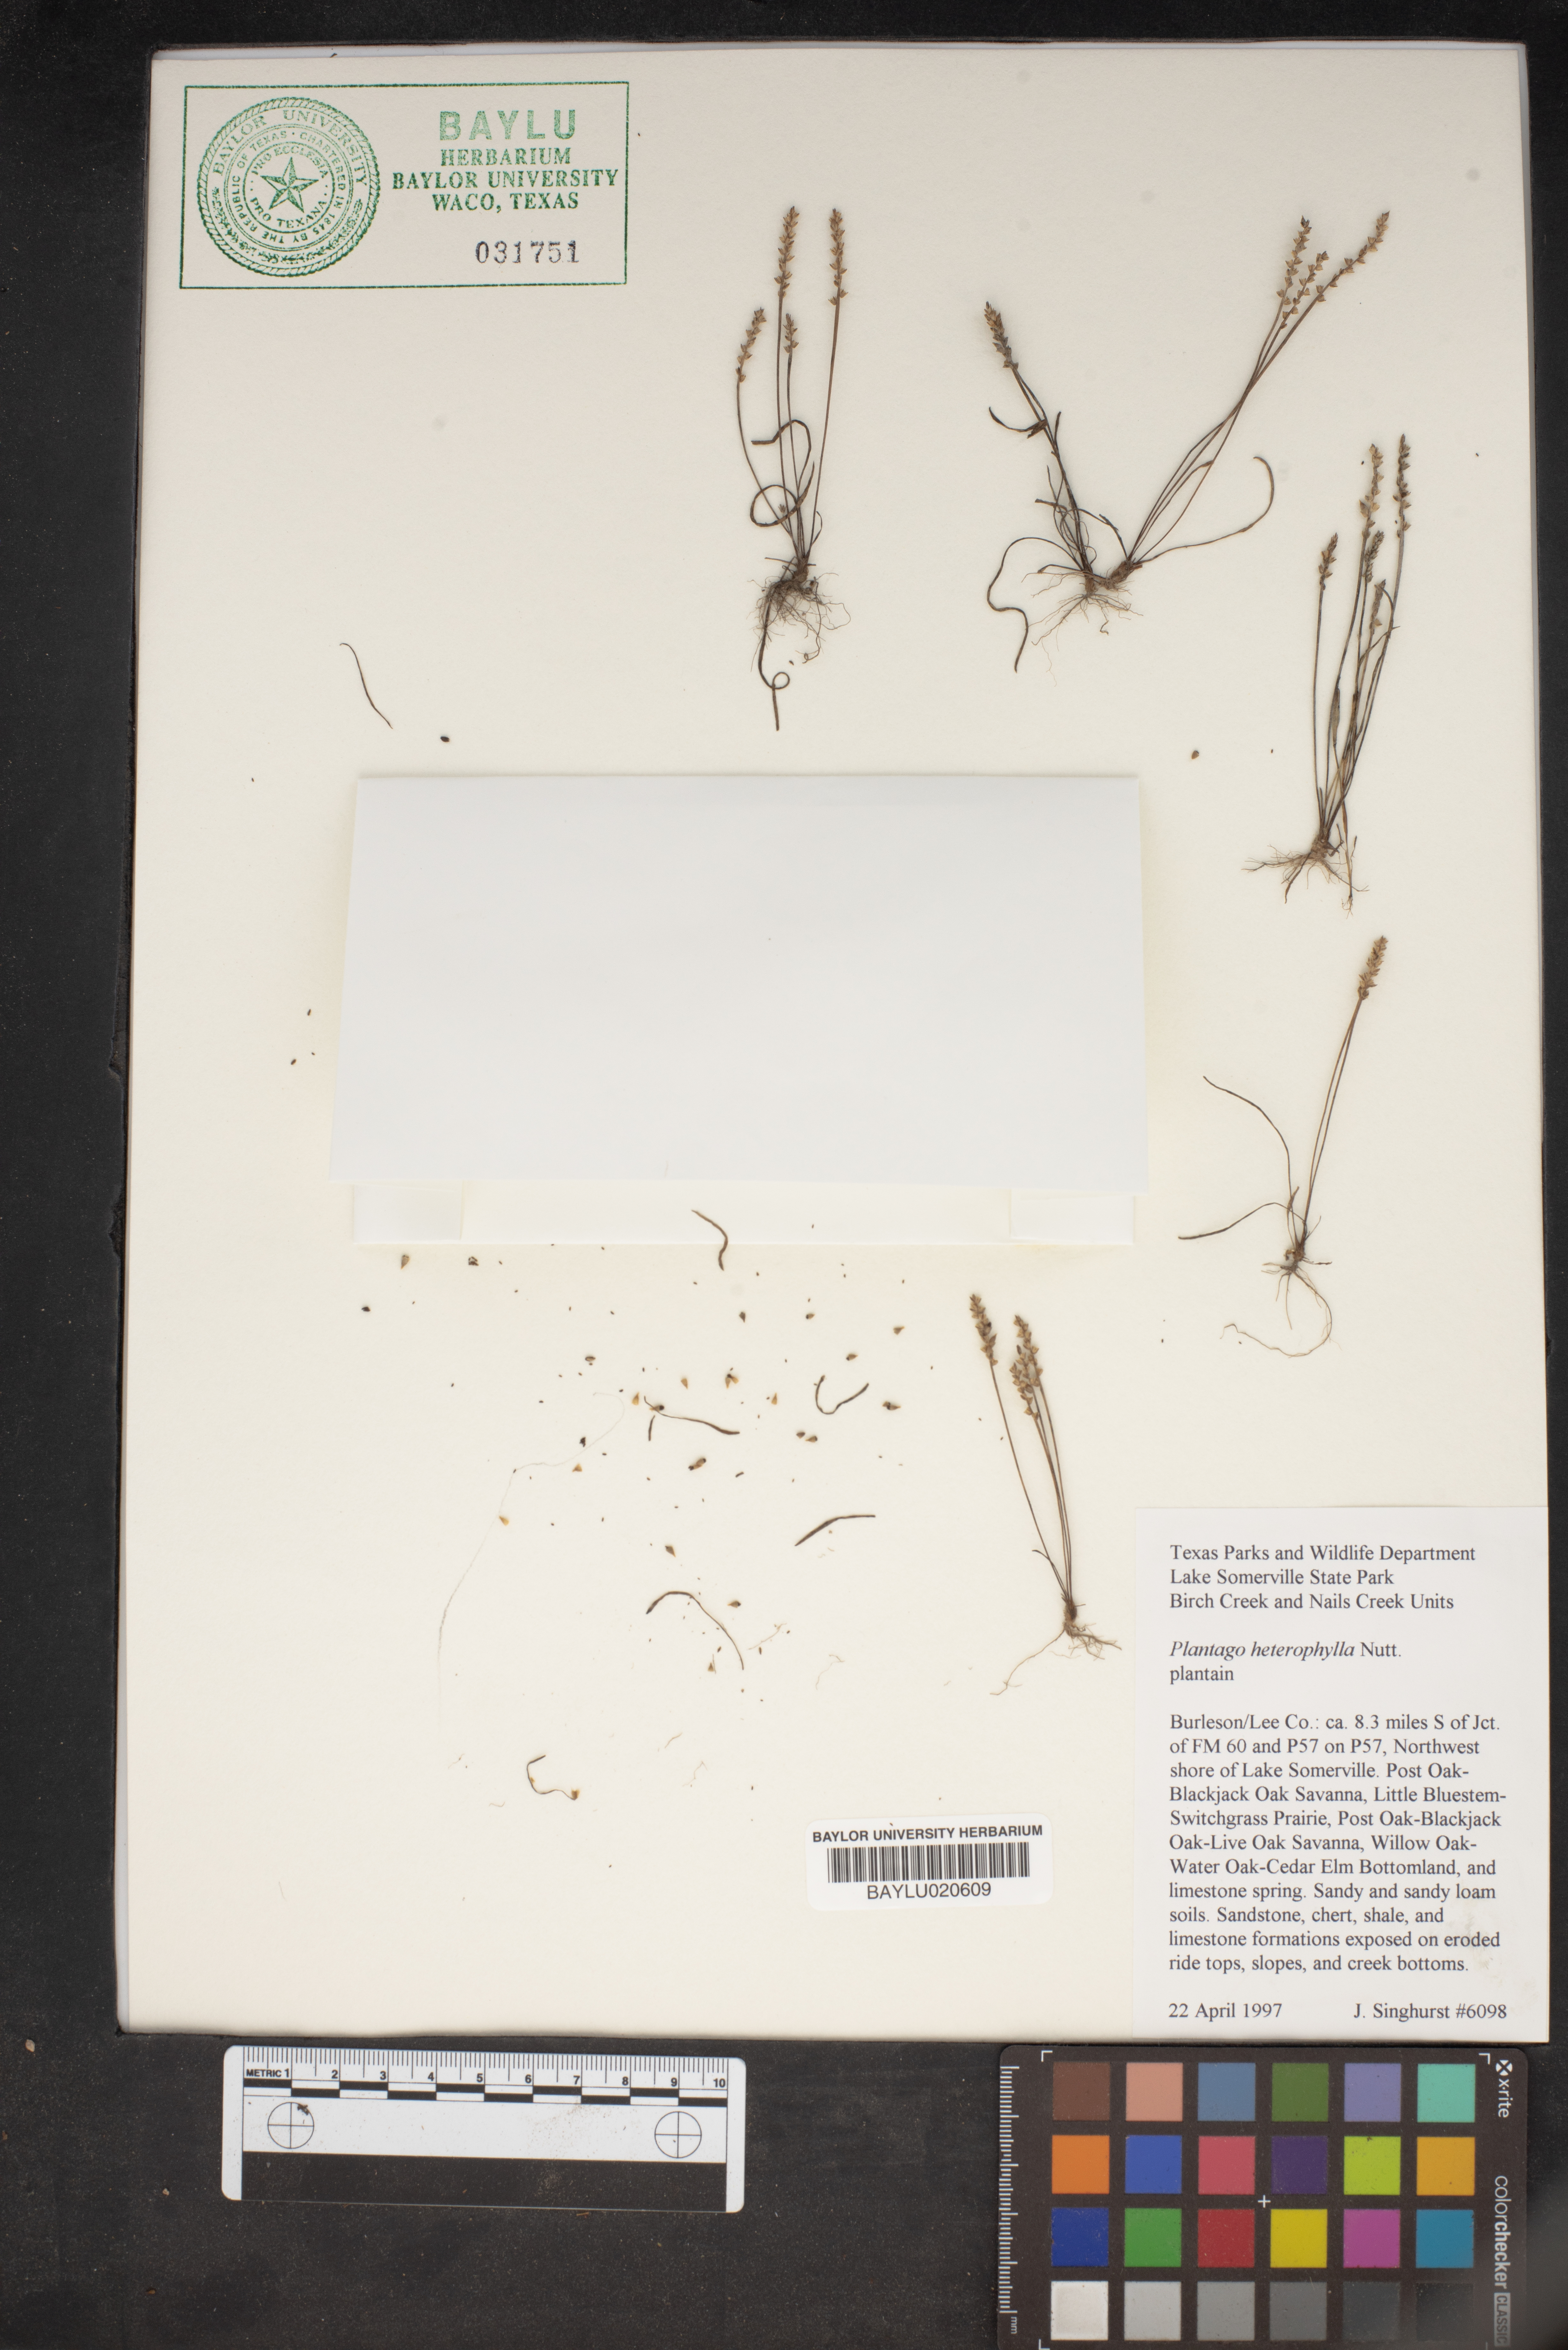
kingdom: Plantae
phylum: Tracheophyta
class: Magnoliopsida
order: Lamiales
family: Plantaginaceae
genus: Plantago
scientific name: Plantago heterophylla
